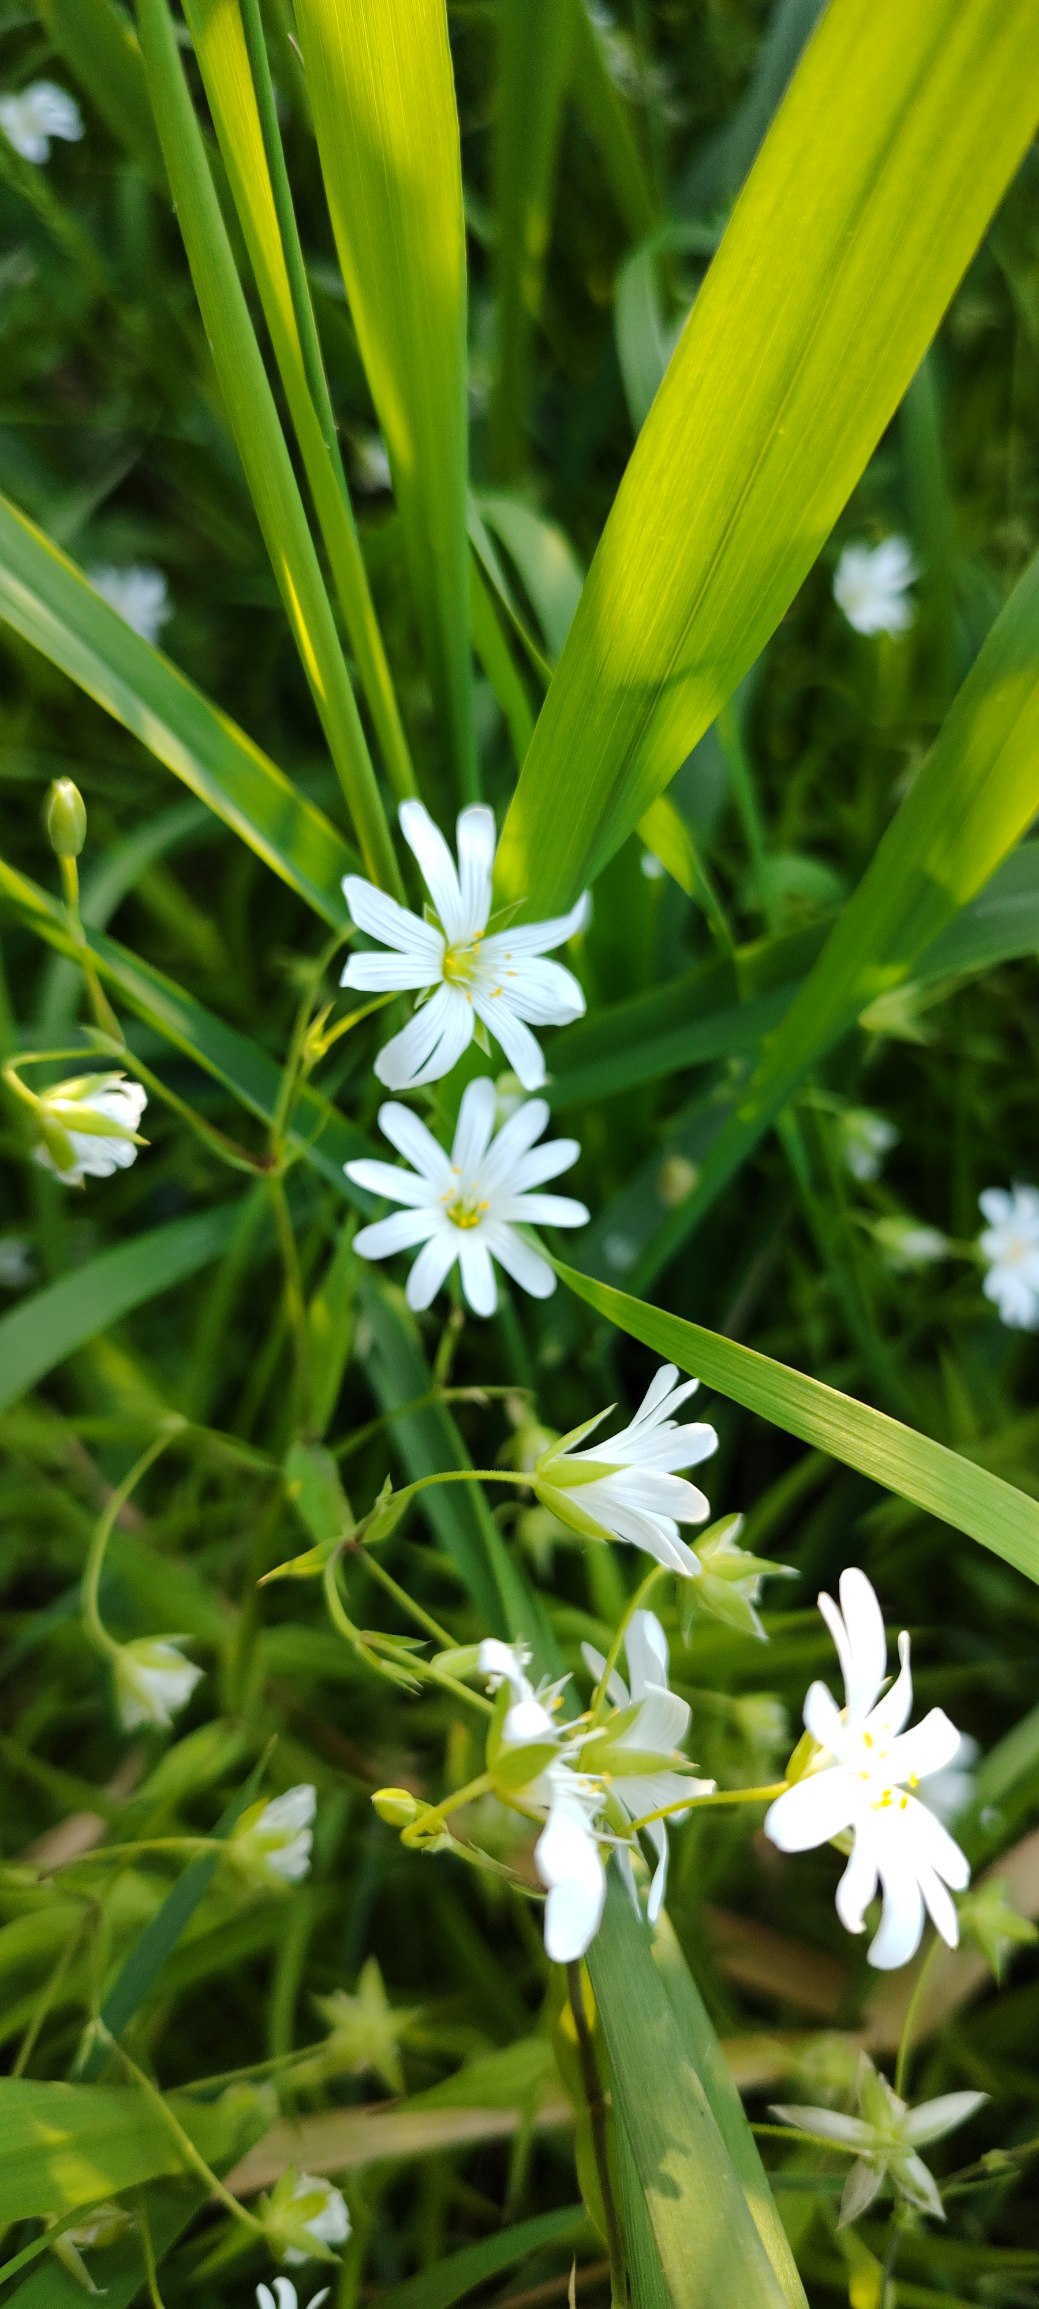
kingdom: Plantae
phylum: Tracheophyta
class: Magnoliopsida
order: Caryophyllales
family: Caryophyllaceae
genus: Rabelera
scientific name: Rabelera holostea
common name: Stor fladstjerne
